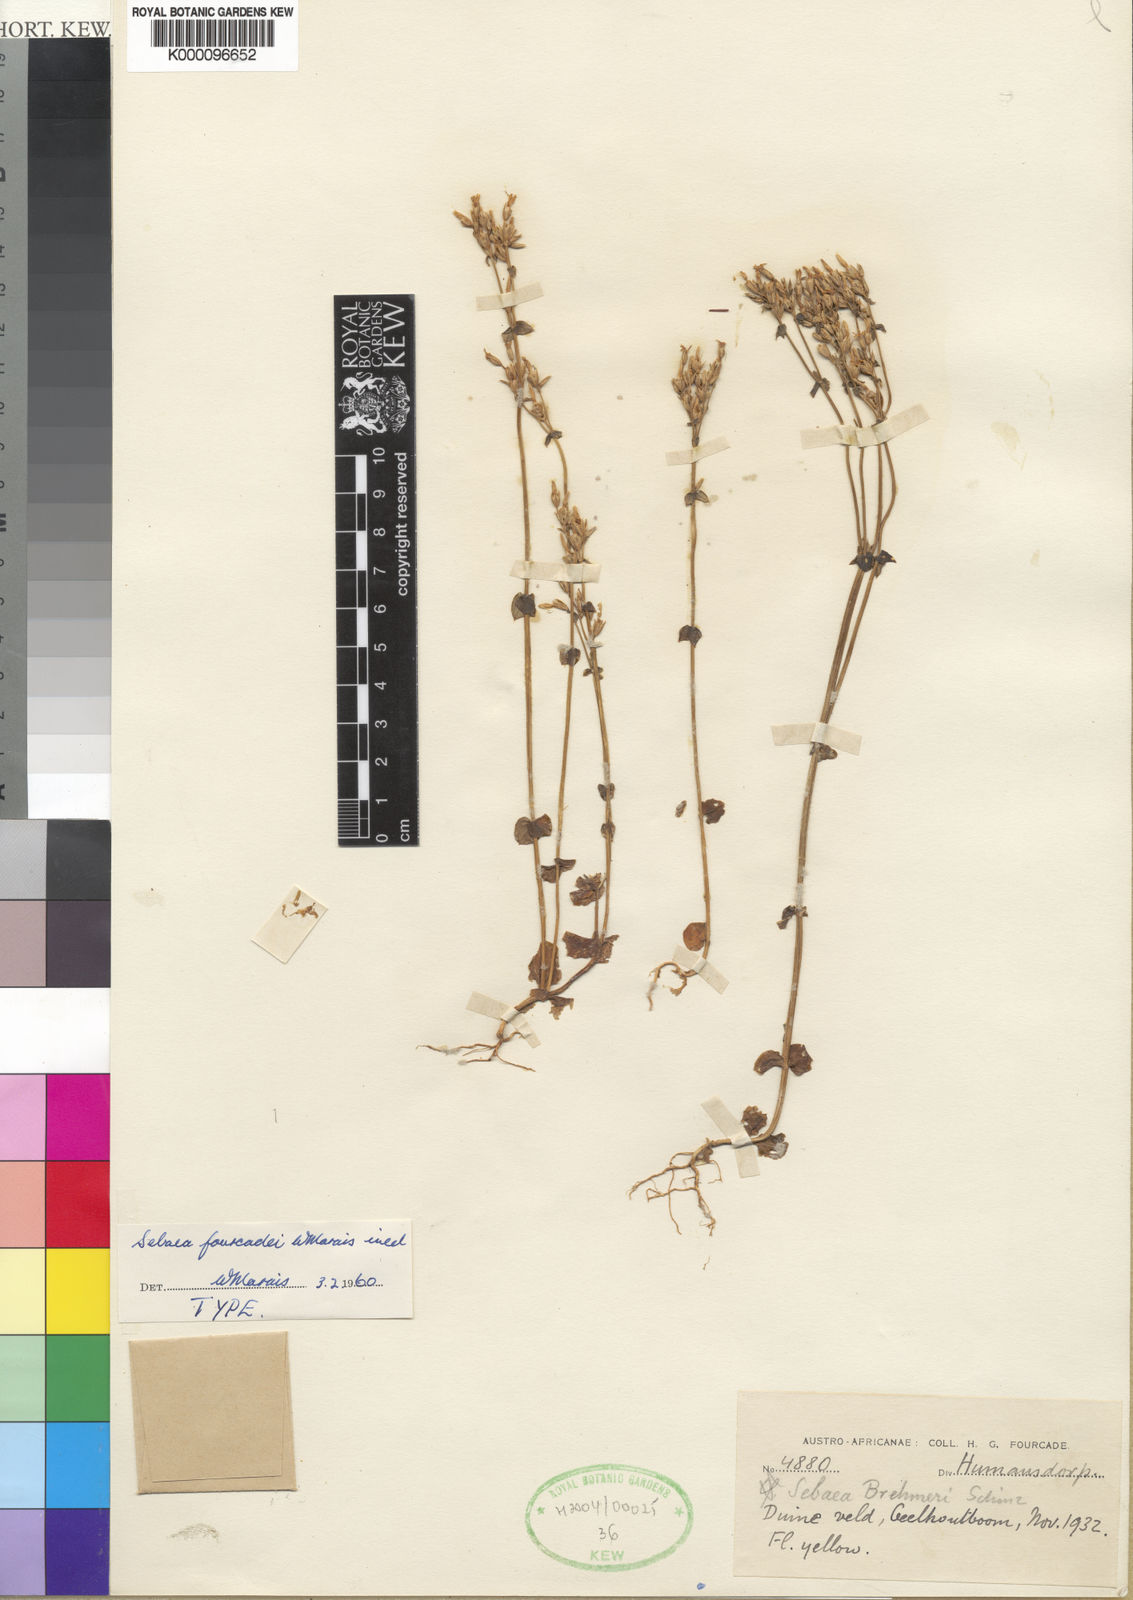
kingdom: Plantae
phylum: Tracheophyta
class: Magnoliopsida
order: Gentianales
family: Gentianaceae
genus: Sebaea
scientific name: Sebaea fourcadei
